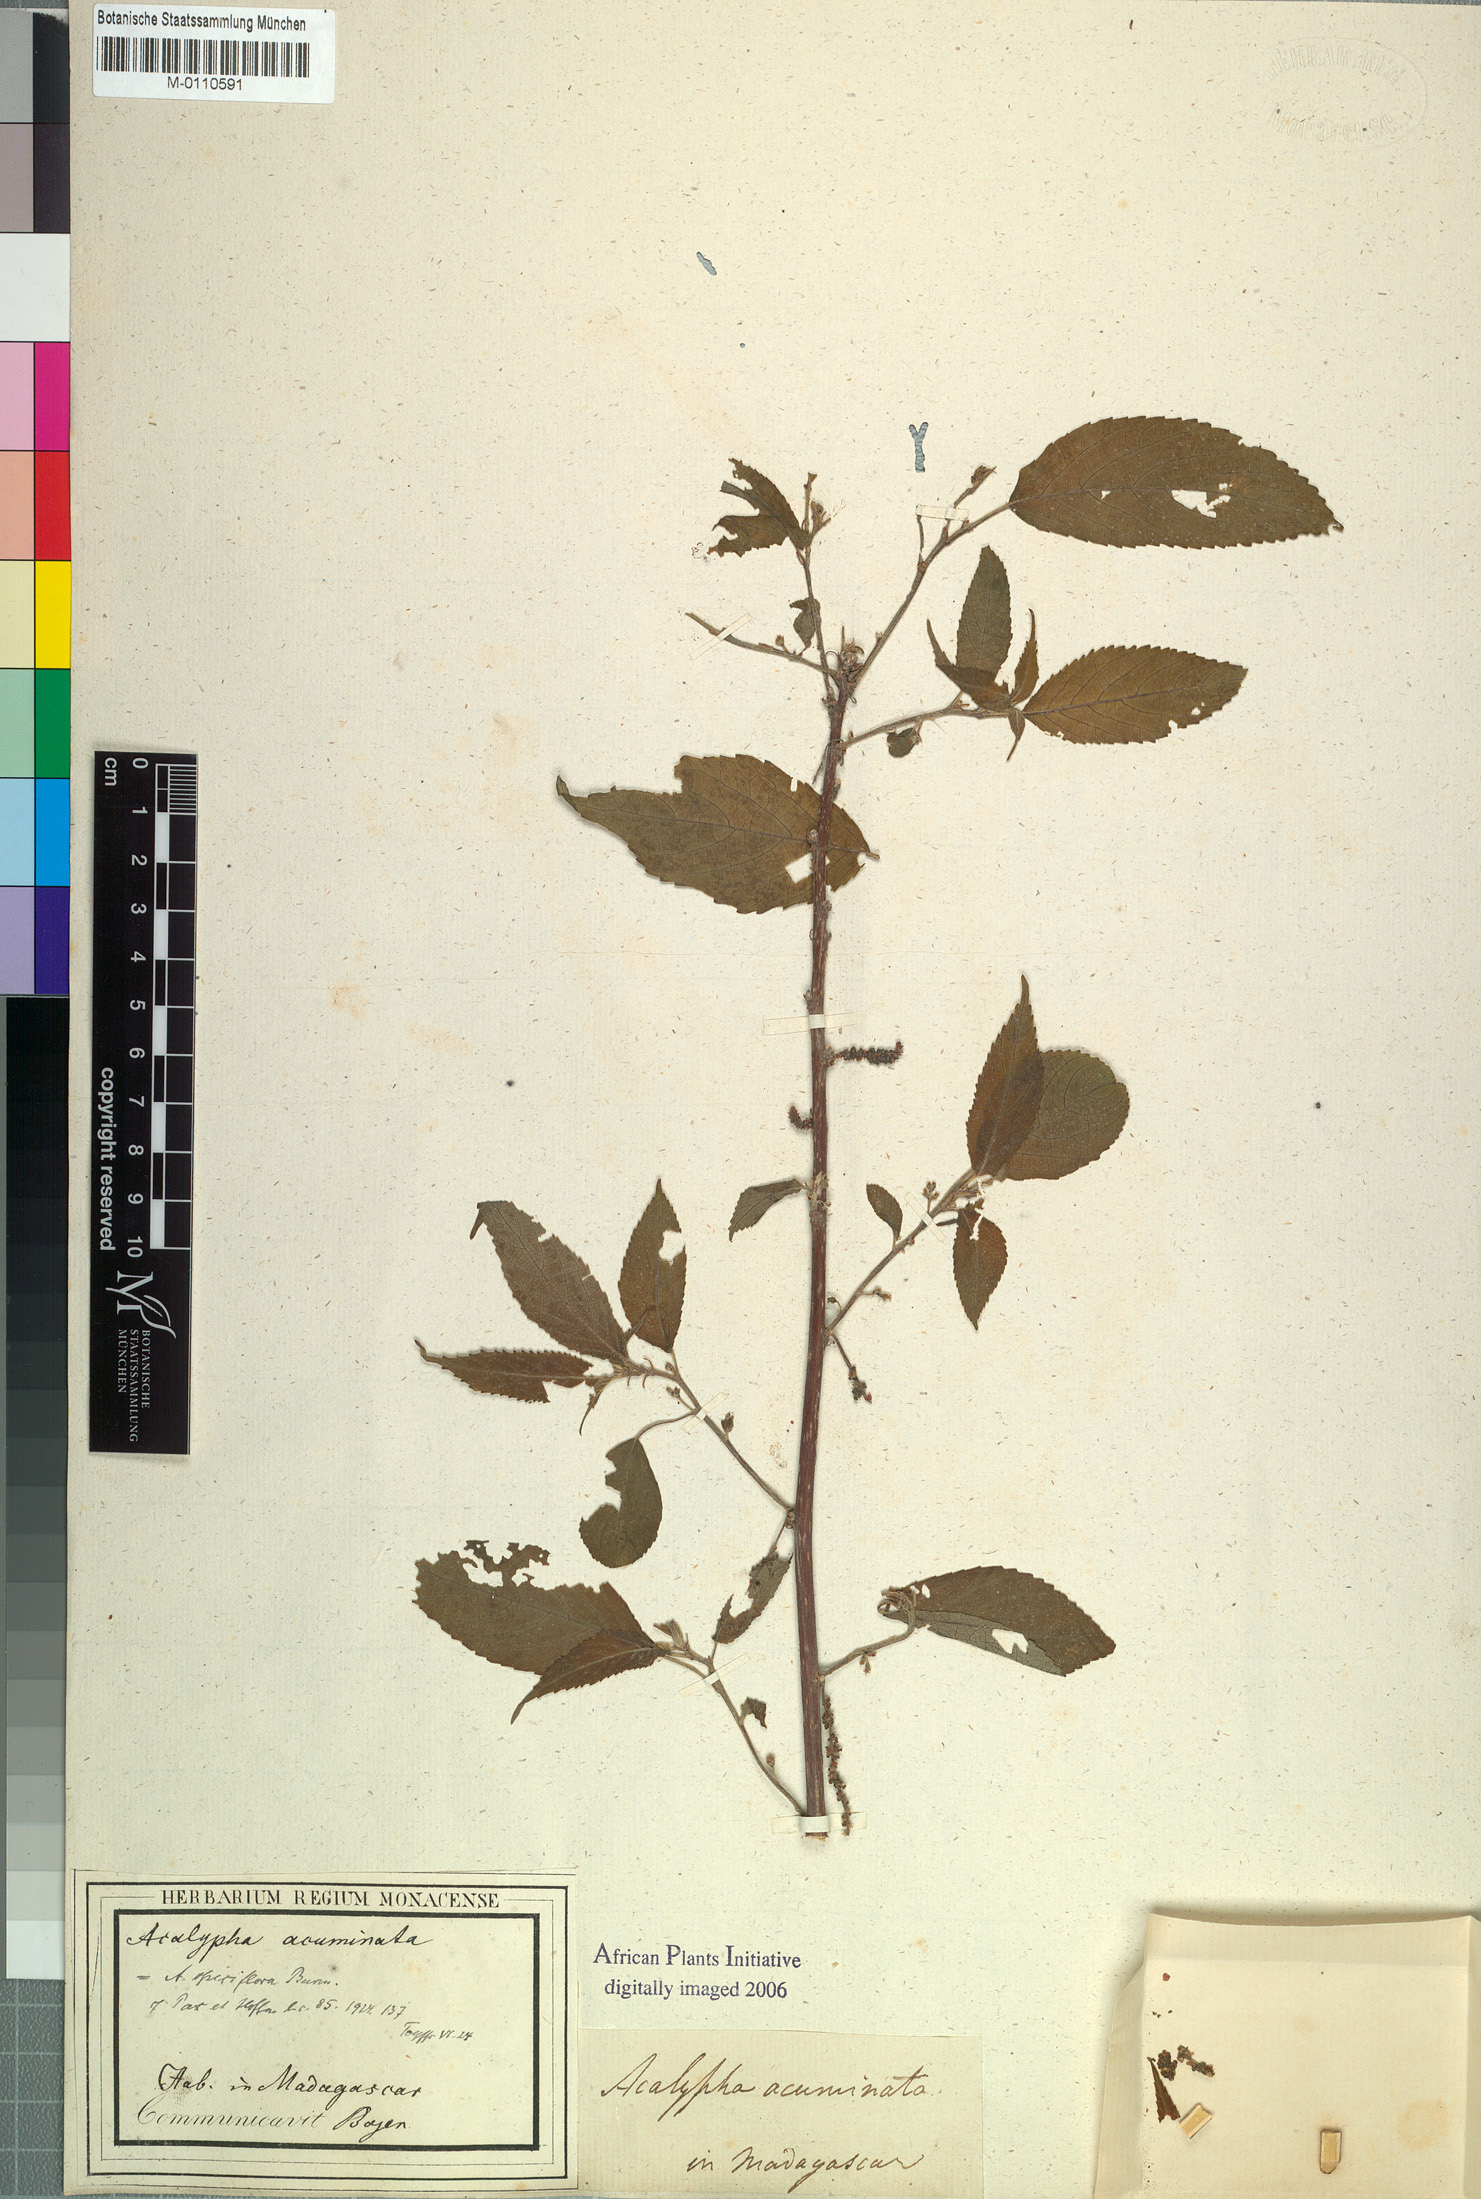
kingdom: Plantae
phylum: Tracheophyta
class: Magnoliopsida
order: Malpighiales
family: Euphorbiaceae
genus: Acalypha
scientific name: Acalypha acuminata
